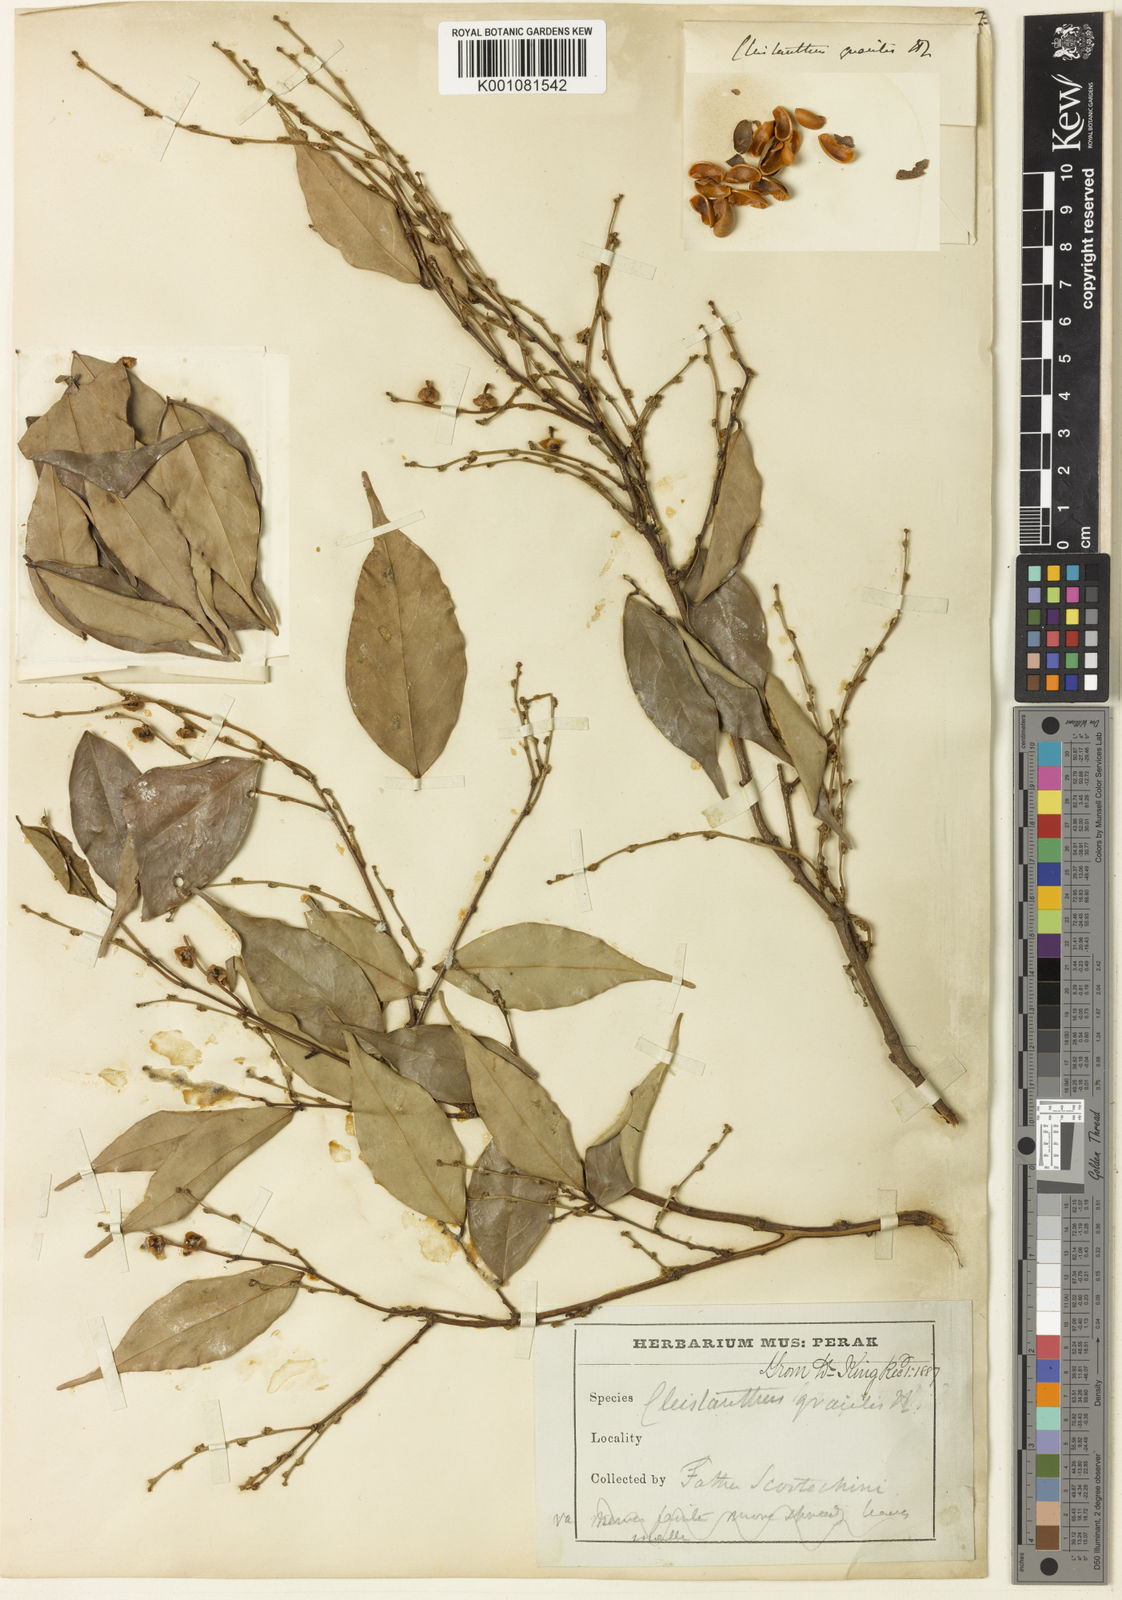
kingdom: Plantae
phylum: Tracheophyta
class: Magnoliopsida
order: Malpighiales
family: Phyllanthaceae
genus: Cleistanthus
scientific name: Cleistanthus gracilis
